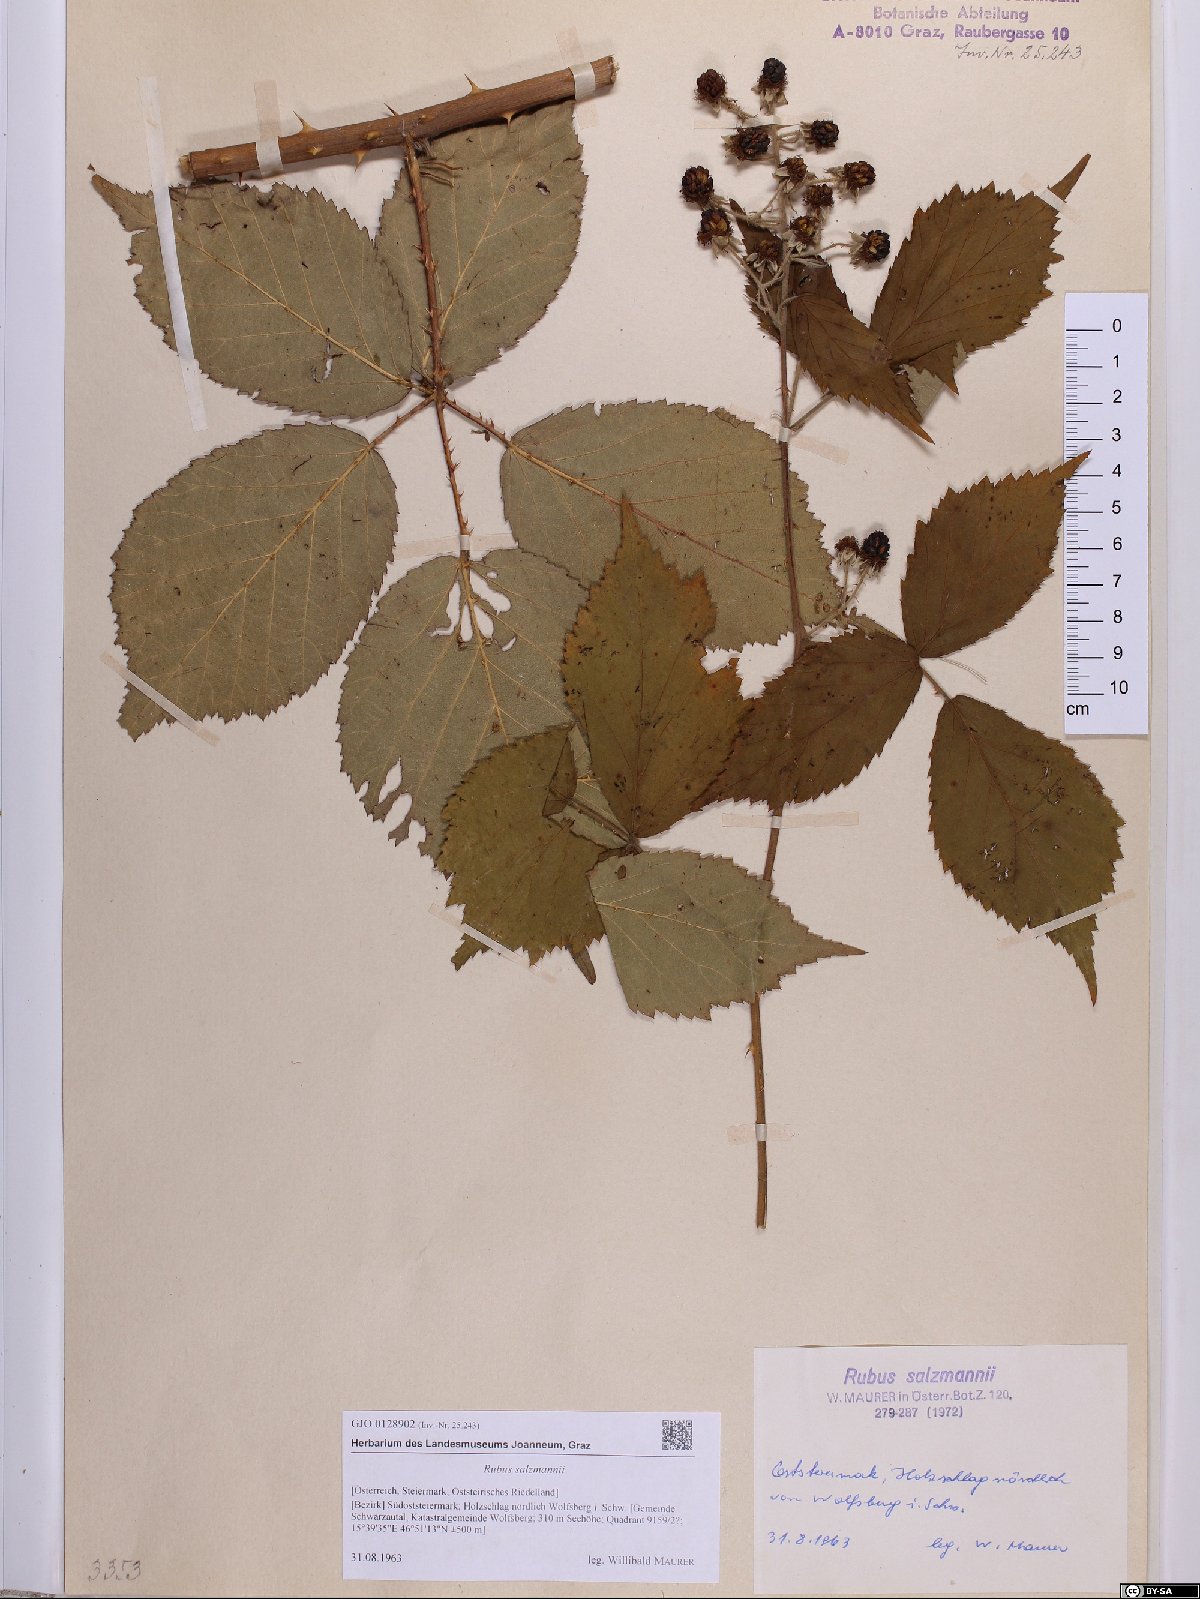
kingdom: Plantae
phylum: Tracheophyta
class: Magnoliopsida
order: Rosales
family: Rosaceae
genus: Rubus
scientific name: Rubus salzmannii
